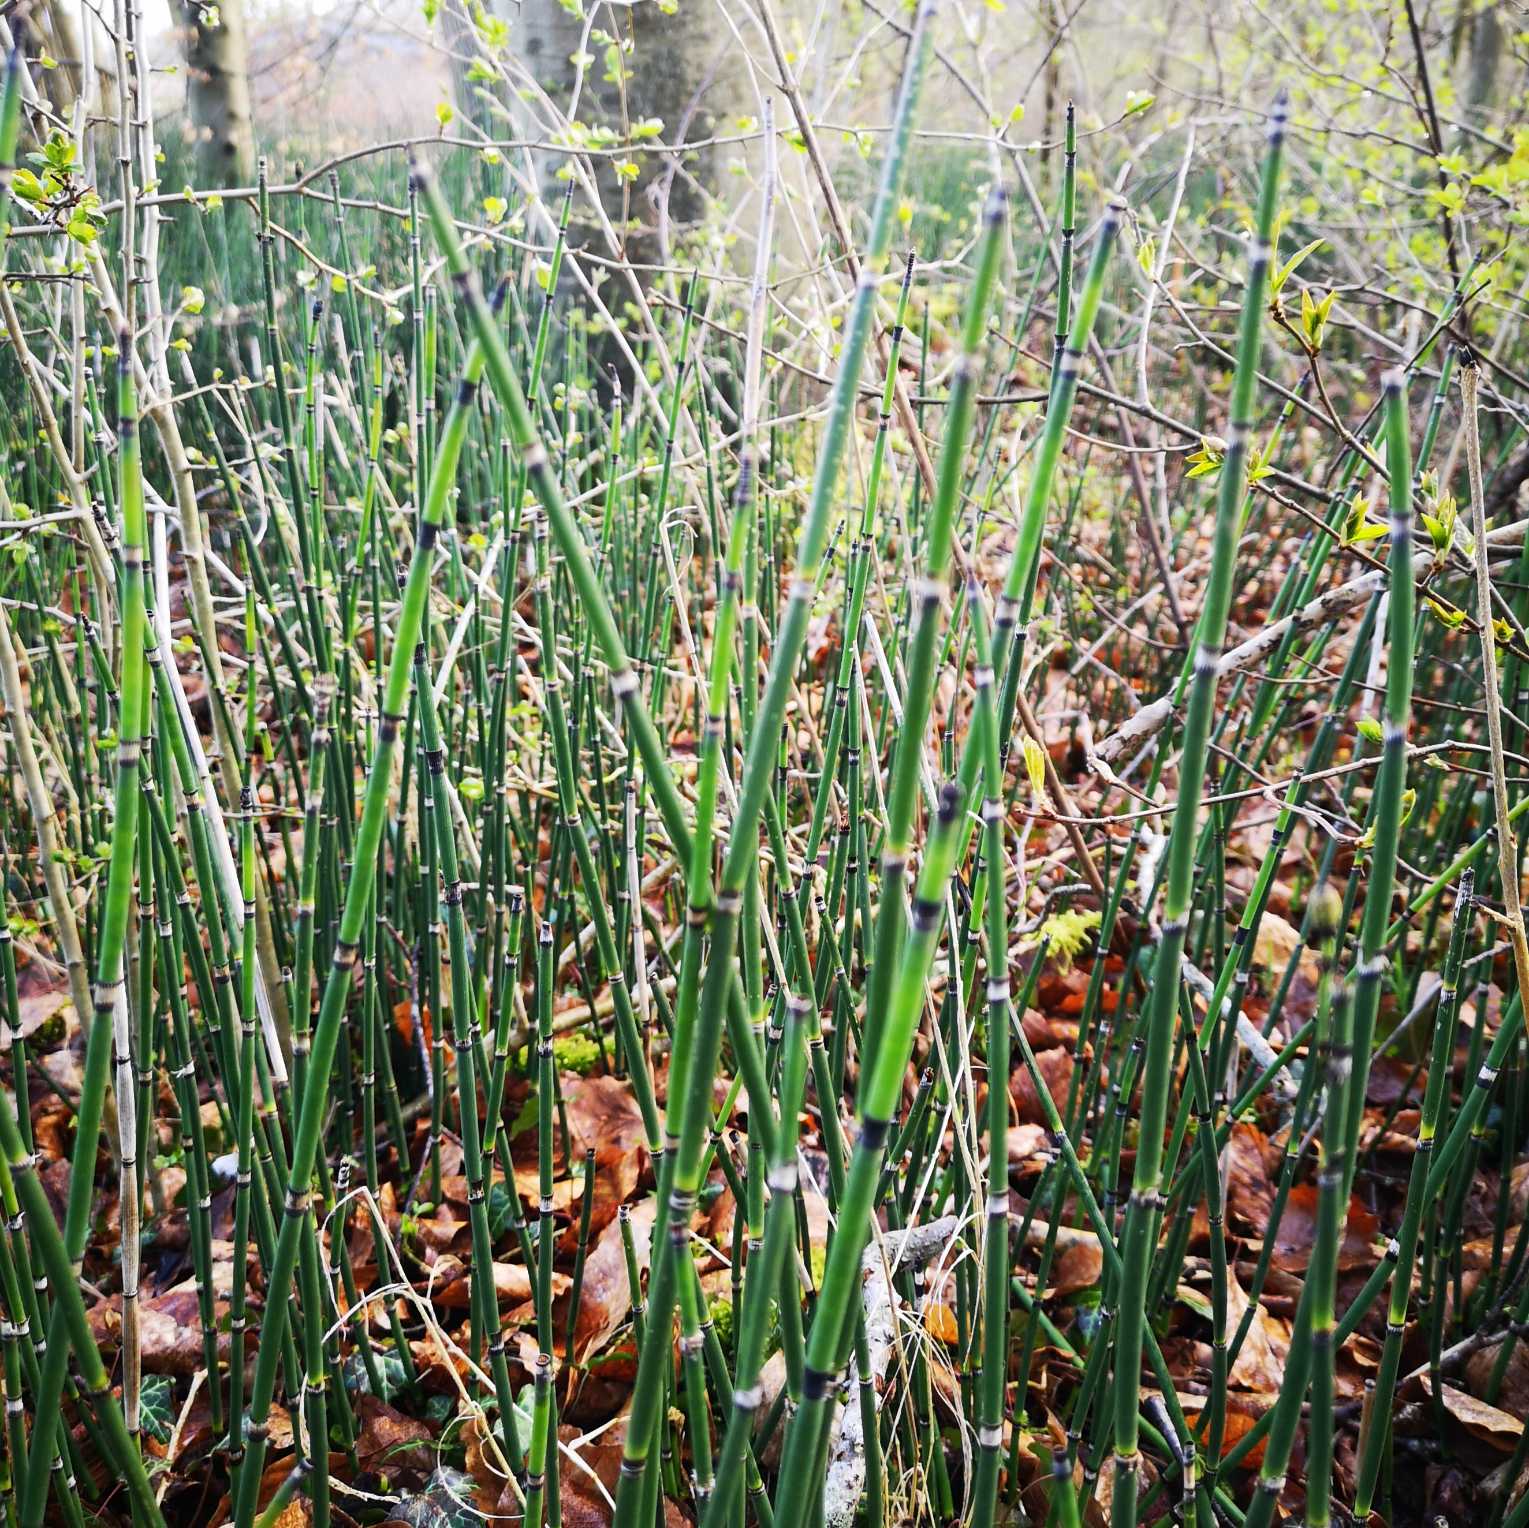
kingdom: Plantae
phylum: Tracheophyta
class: Polypodiopsida
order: Equisetales
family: Equisetaceae
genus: Equisetum
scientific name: Equisetum hyemale
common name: Skavgræs
